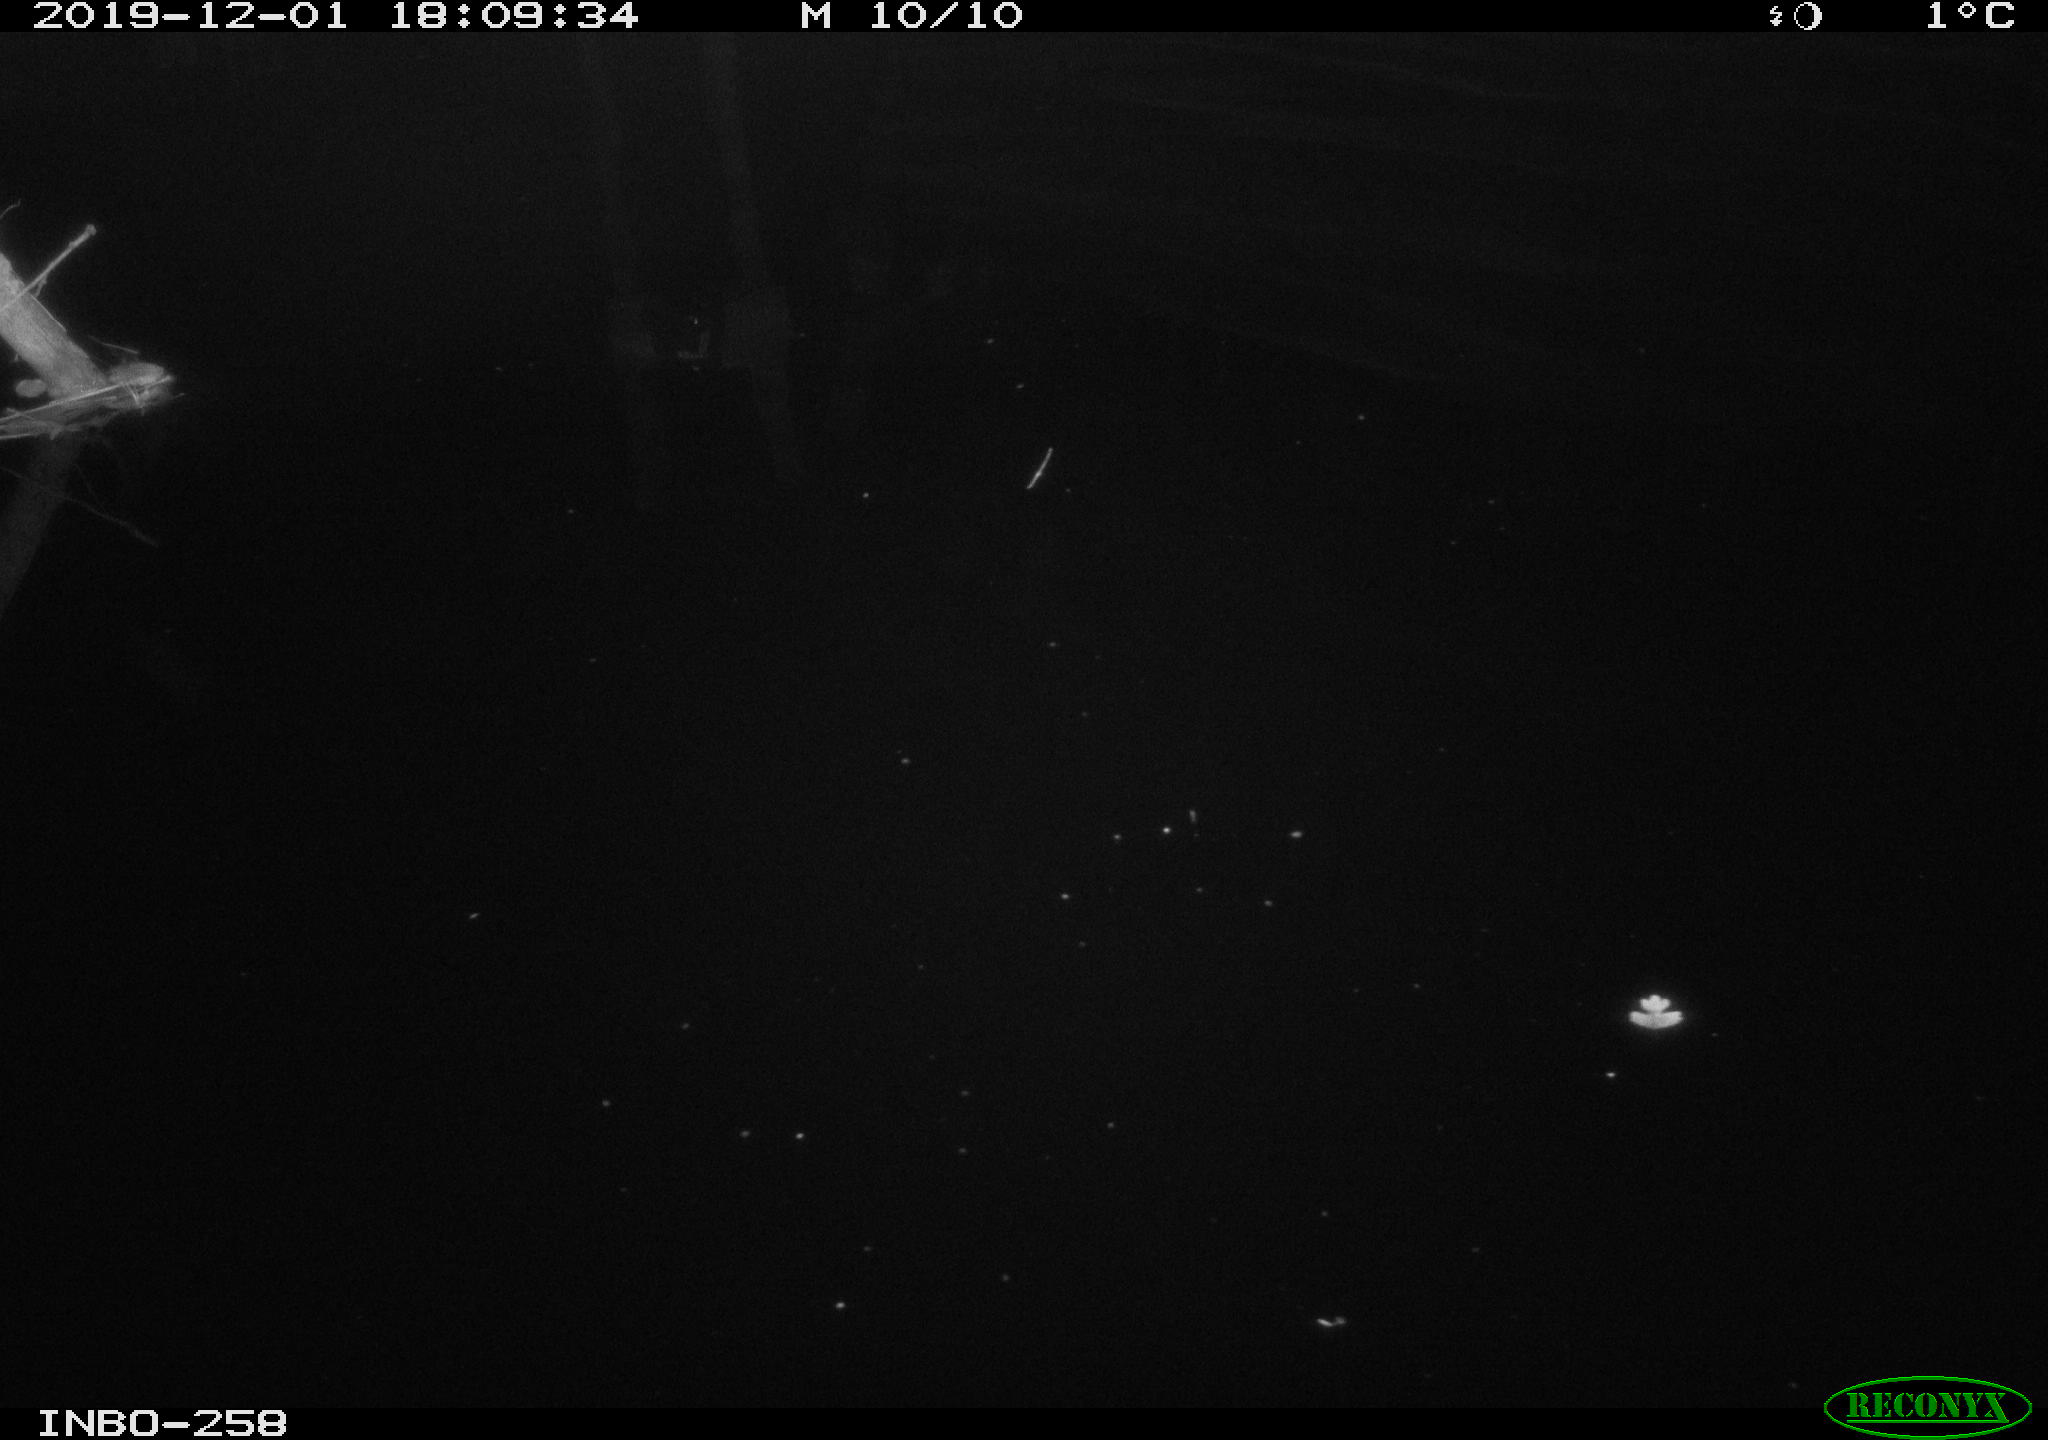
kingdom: Animalia
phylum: Chordata
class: Aves
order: Anseriformes
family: Anatidae
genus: Anas
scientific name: Anas platyrhynchos
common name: Mallard
